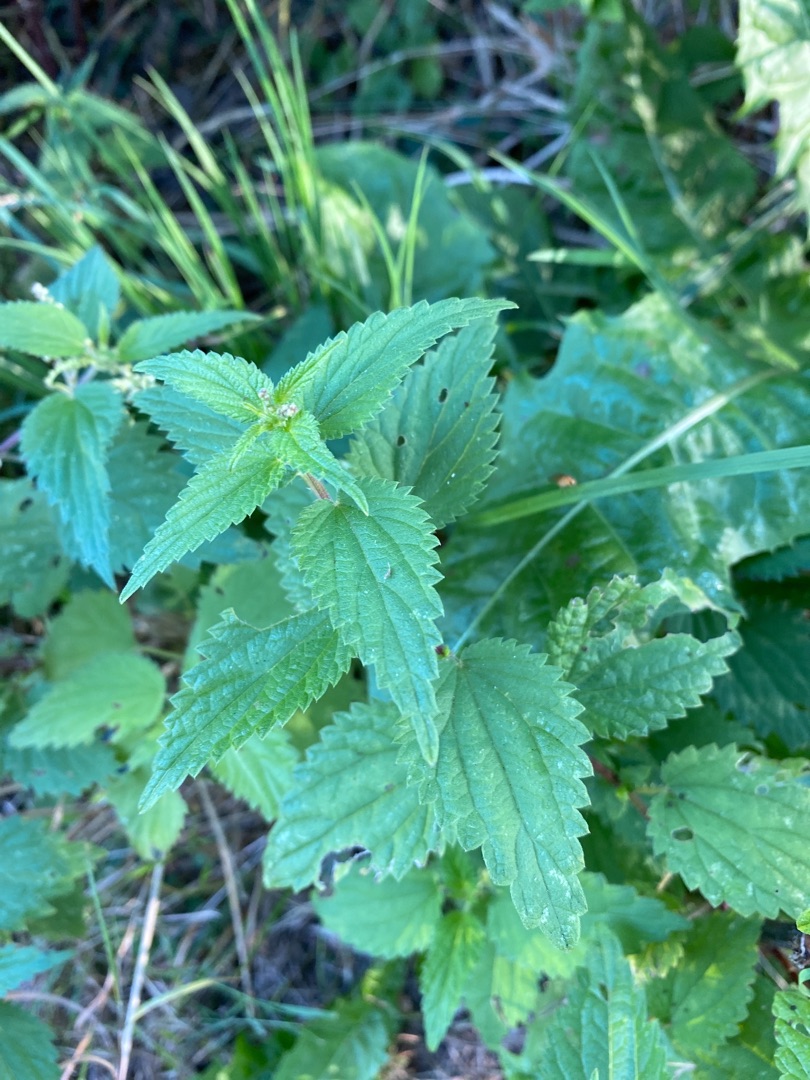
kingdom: Plantae
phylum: Tracheophyta
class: Magnoliopsida
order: Rosales
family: Urticaceae
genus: Urtica
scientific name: Urtica dioica
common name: Stor nælde
